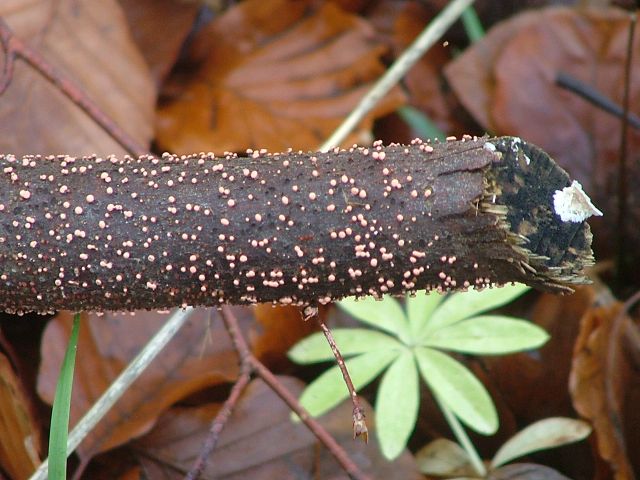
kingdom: Fungi
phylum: Ascomycota
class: Sordariomycetes
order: Hypocreales
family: Nectriaceae
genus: Nectria
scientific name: Nectria cinnabarina
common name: almindelig cinnobersvamp
